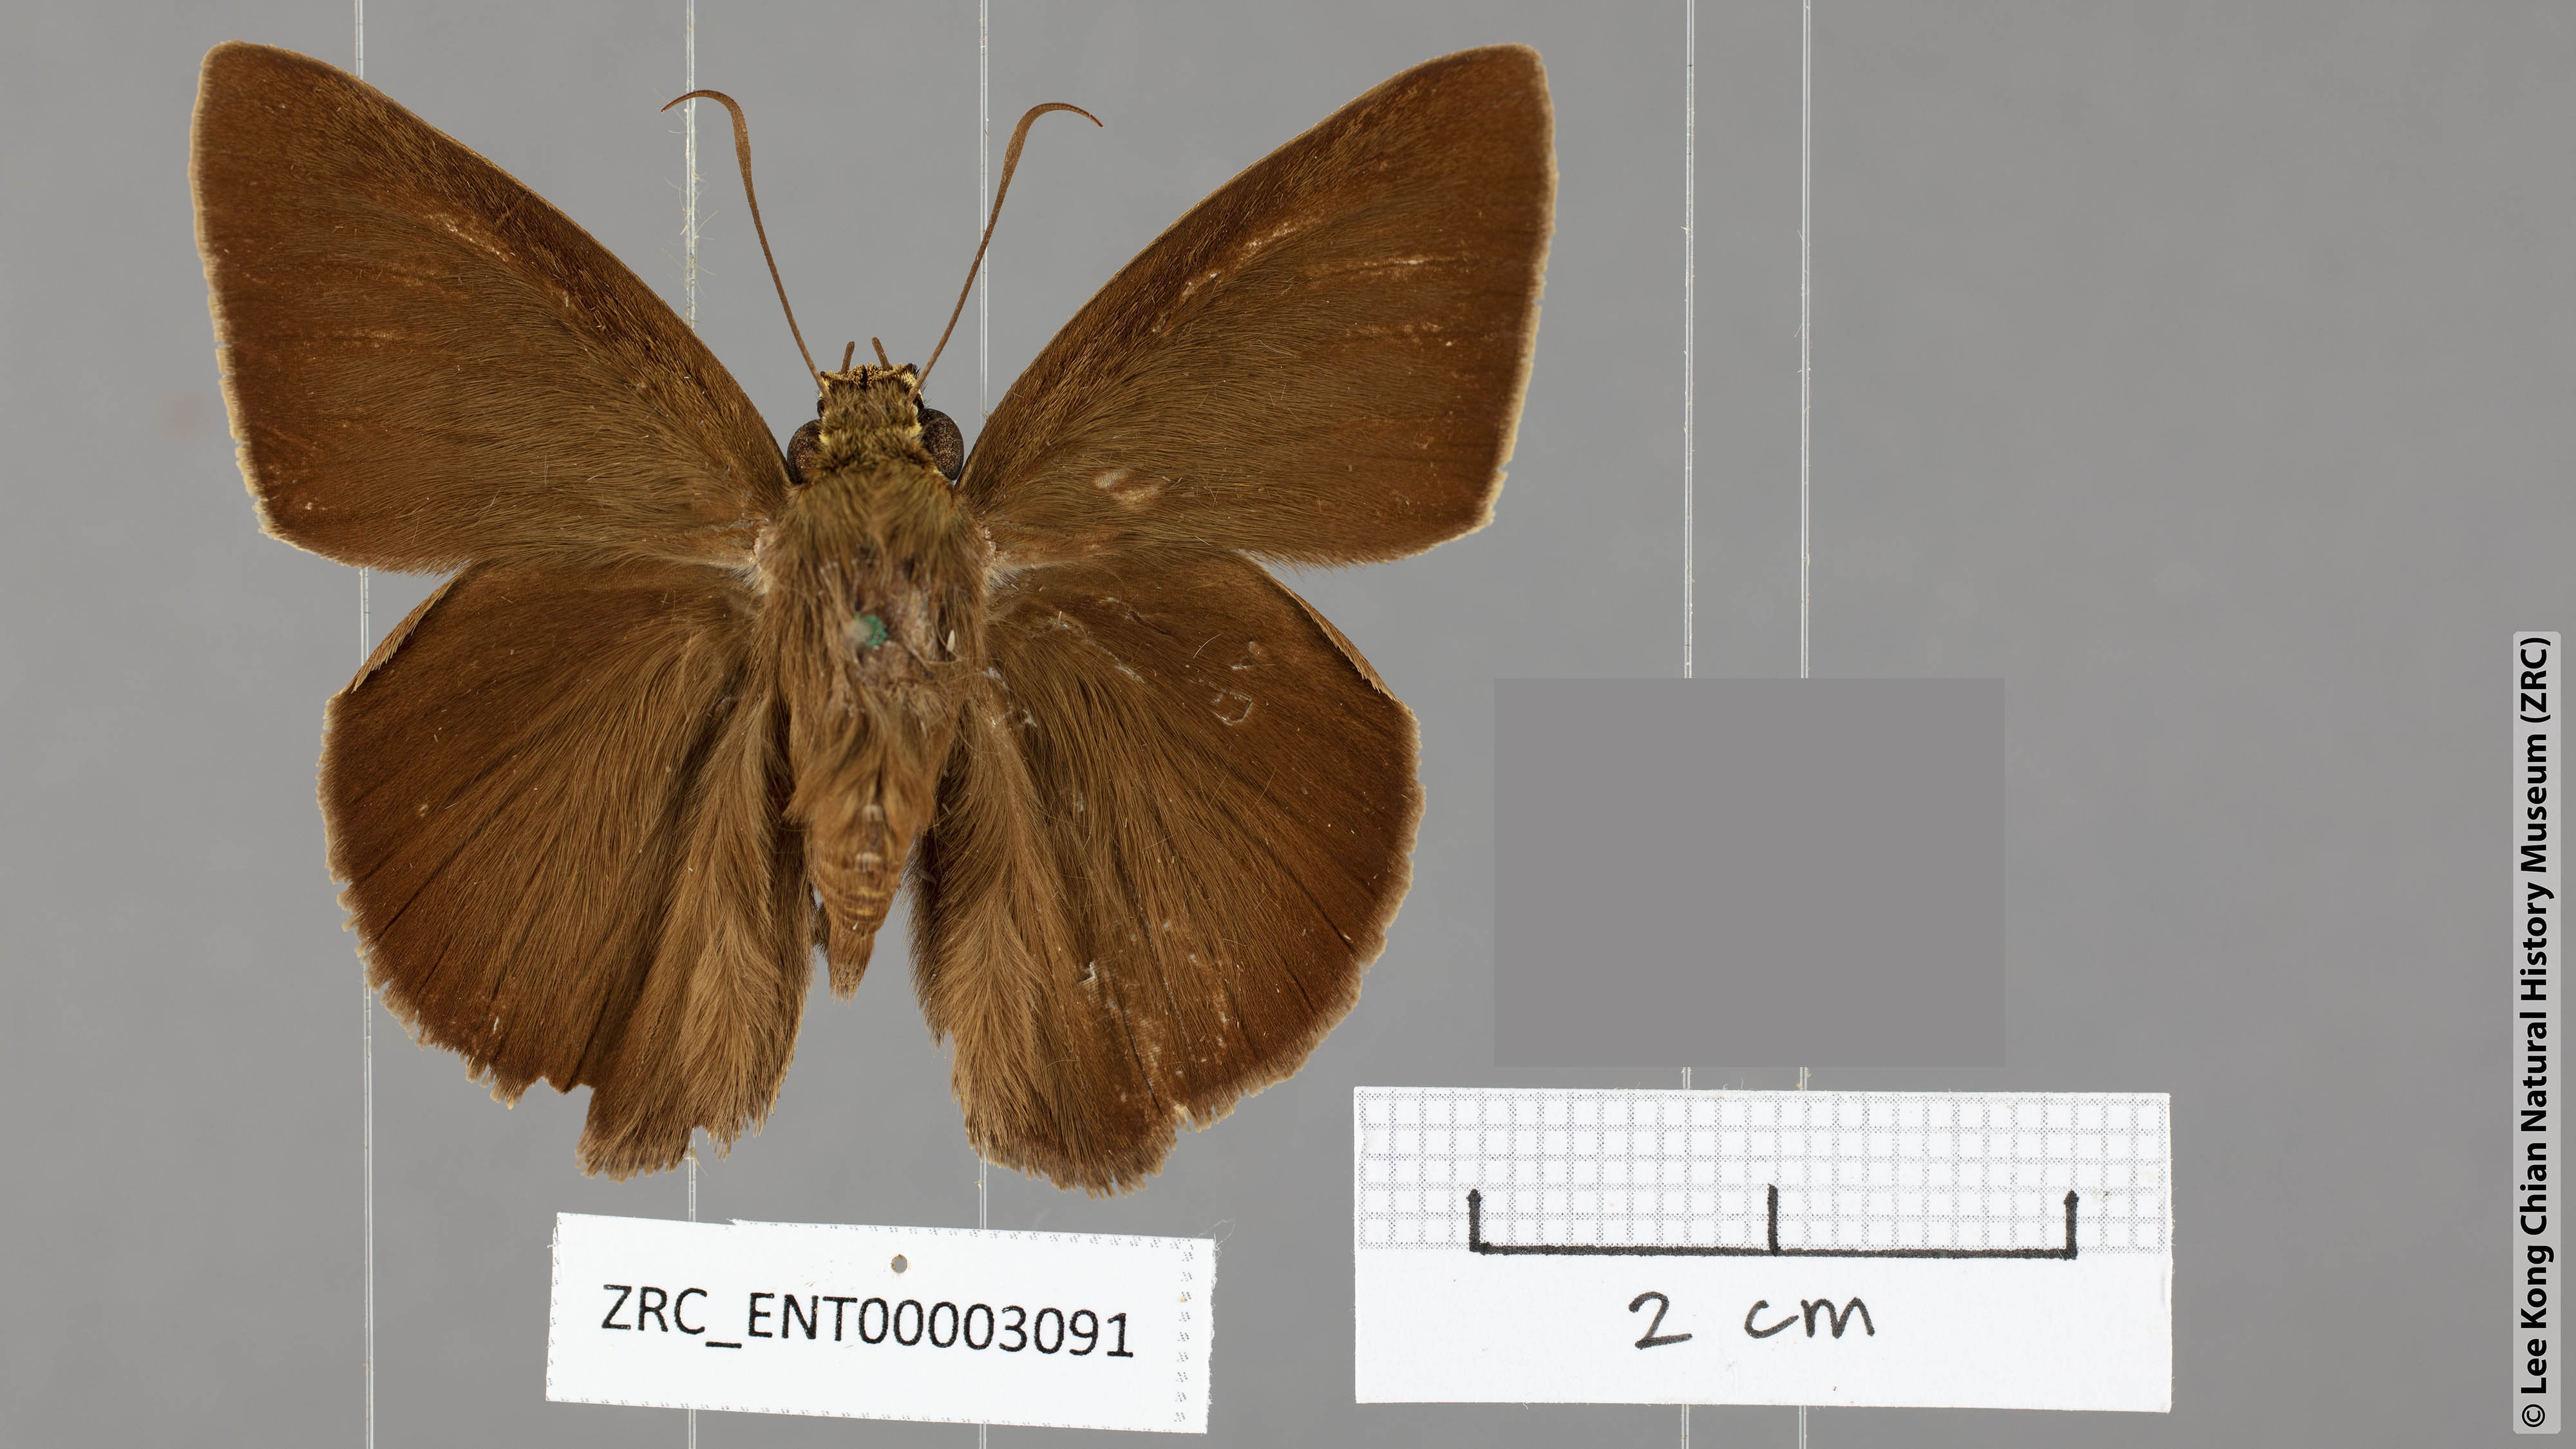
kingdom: Animalia
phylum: Arthropoda
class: Insecta
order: Lepidoptera
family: Hesperiidae
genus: Hasora
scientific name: Hasora zoma
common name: Dark banded awl
